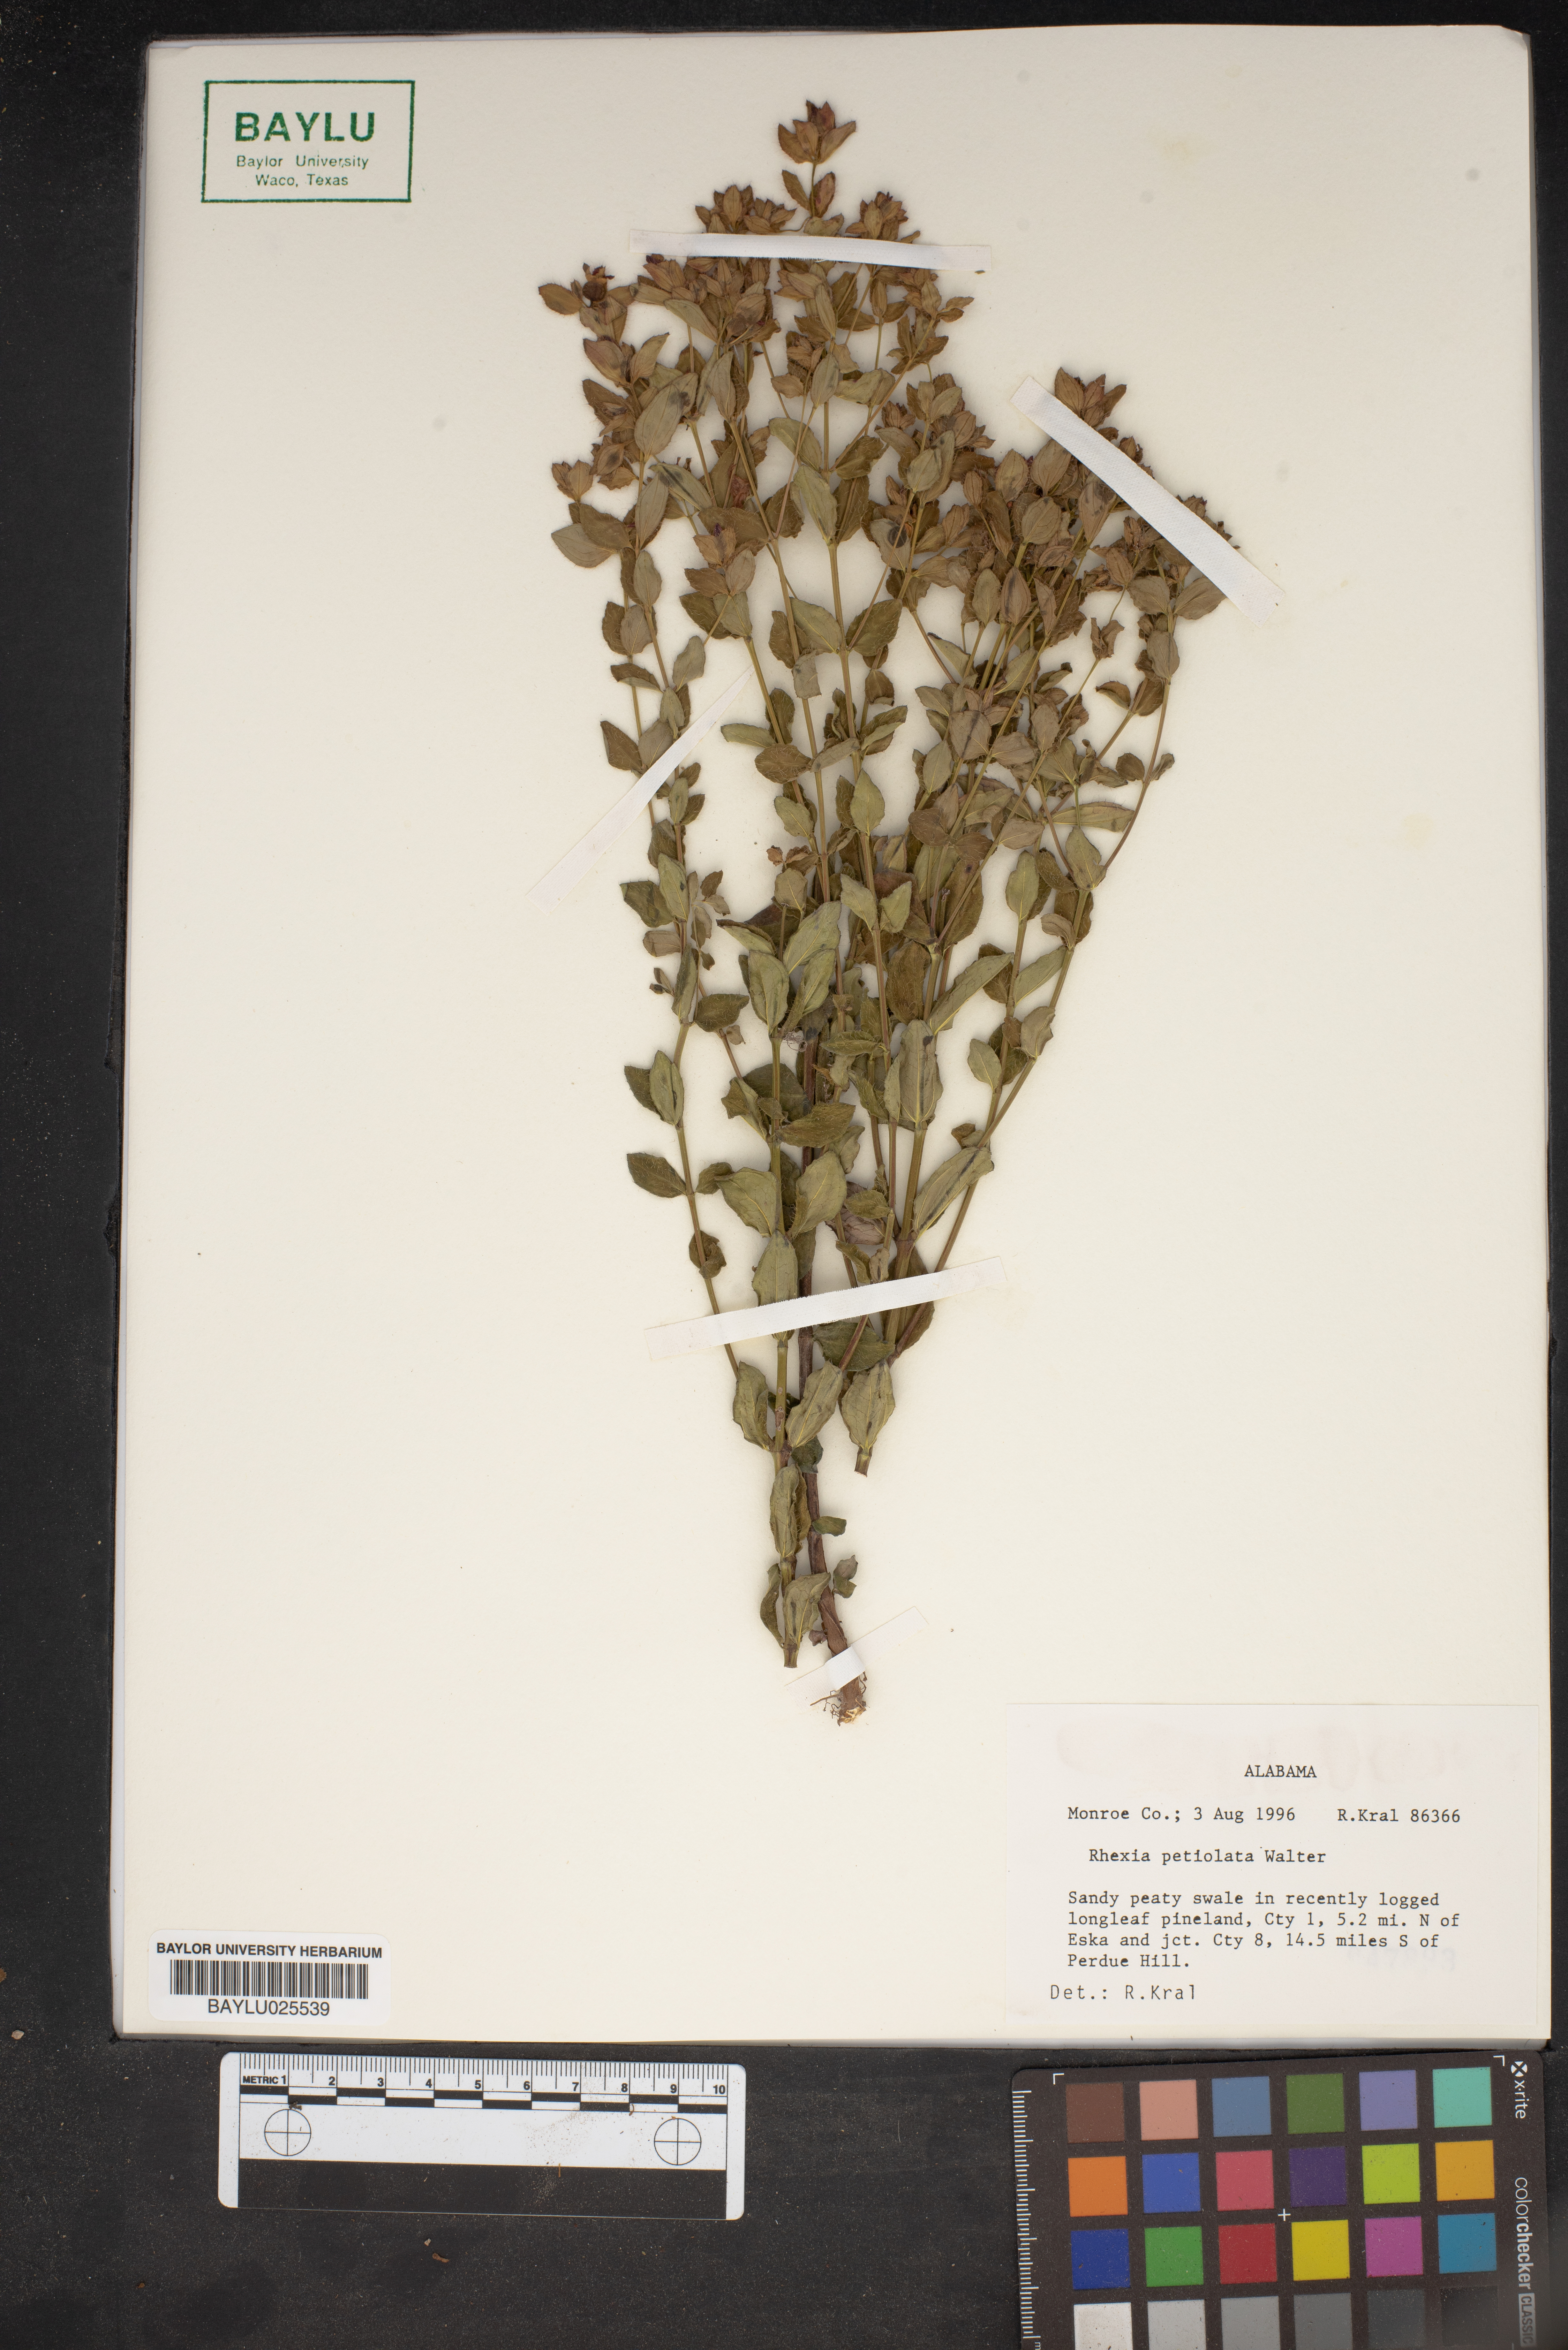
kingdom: Plantae
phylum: Tracheophyta
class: Magnoliopsida
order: Myrtales
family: Melastomataceae
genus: Rhexia
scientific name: Rhexia petiolata
